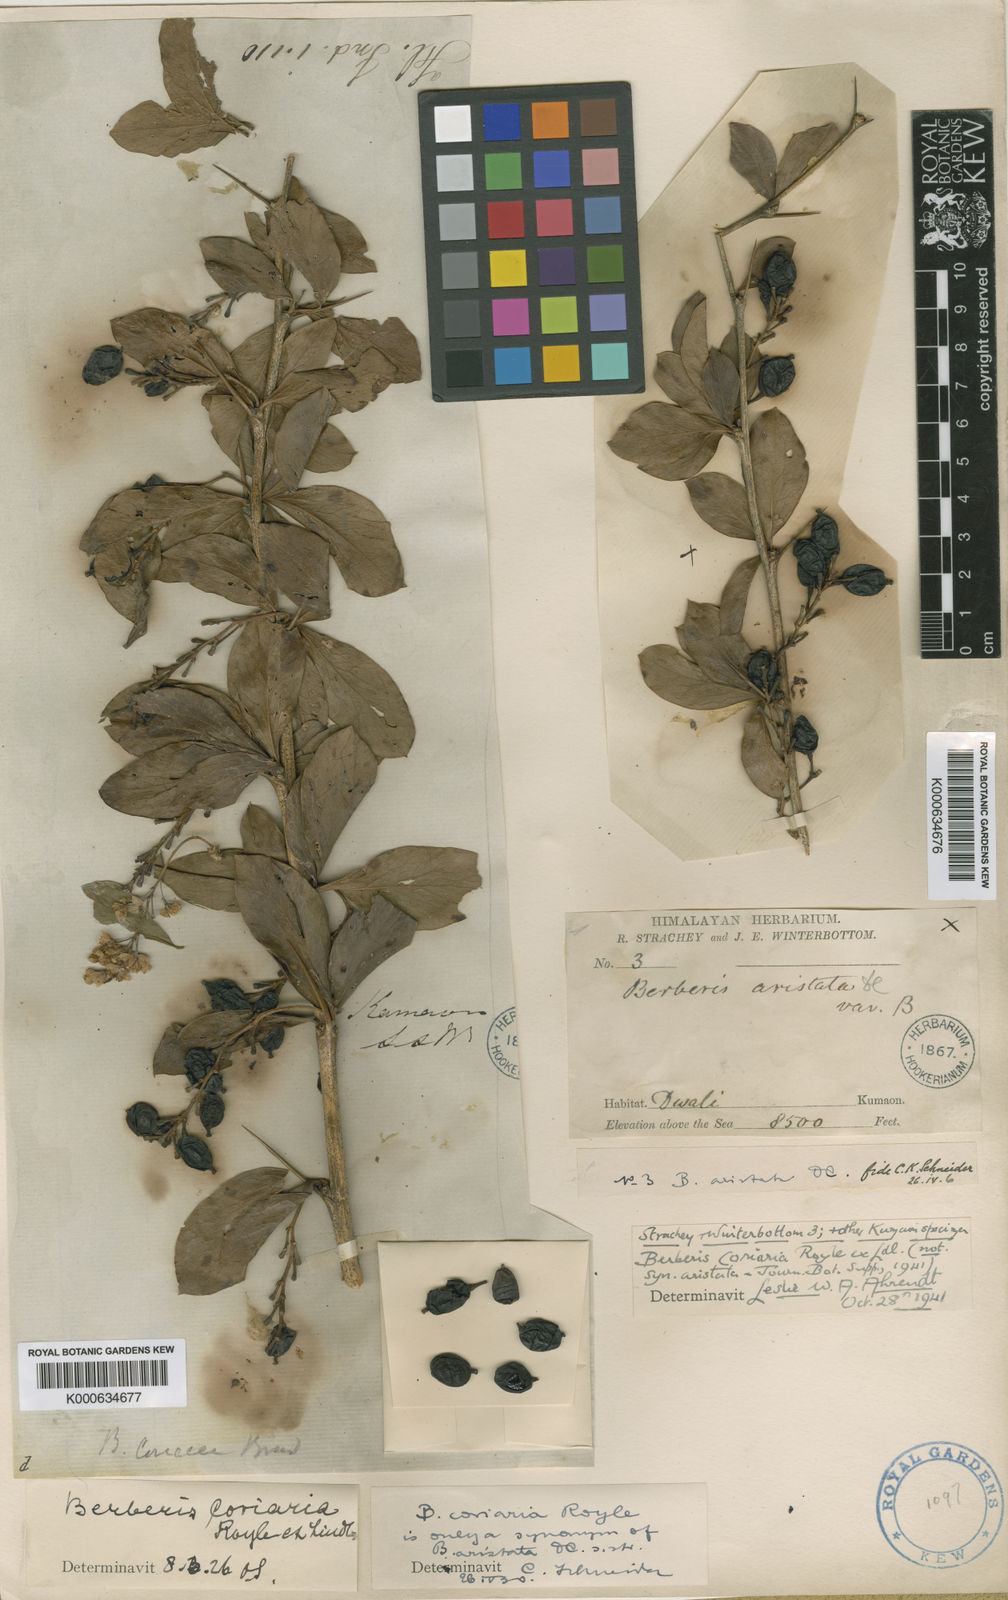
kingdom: Plantae
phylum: Tracheophyta
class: Magnoliopsida
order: Ranunculales
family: Berberidaceae
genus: Berberis
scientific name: Berberis coriaria
